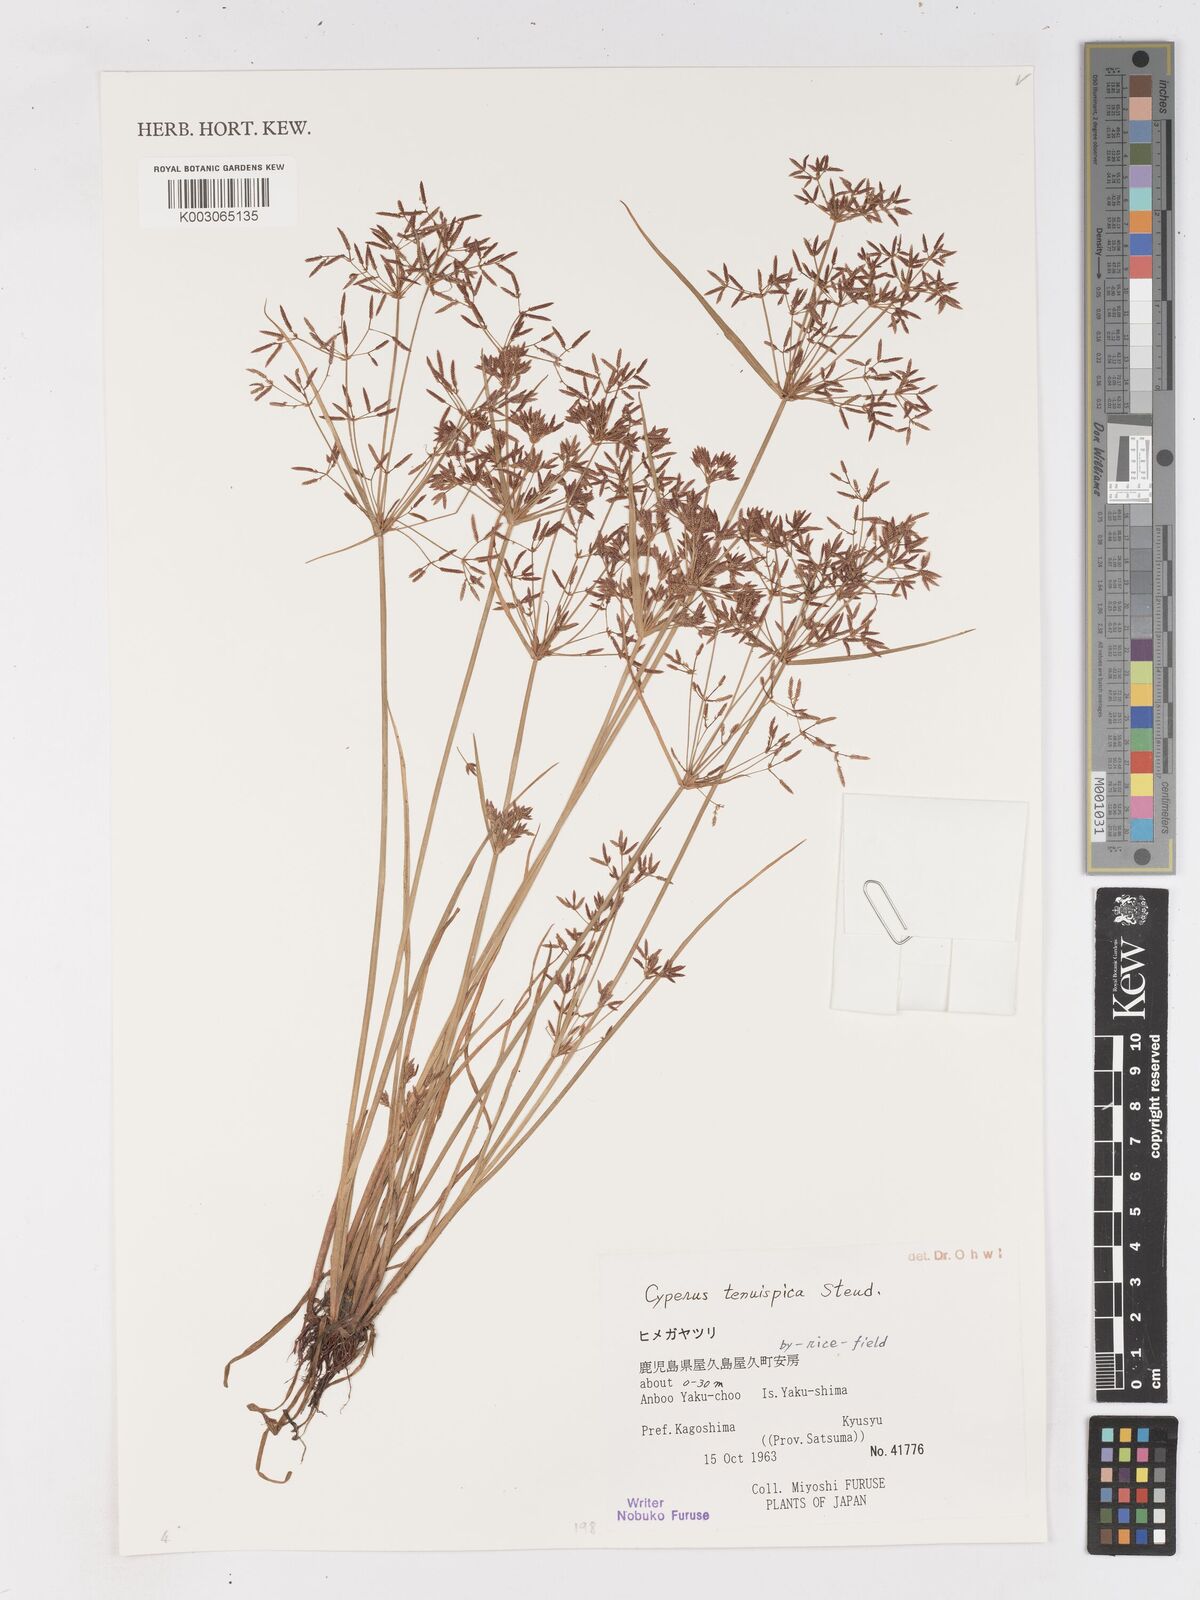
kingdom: Plantae
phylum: Tracheophyta
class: Liliopsida
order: Poales
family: Cyperaceae
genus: Cyperus
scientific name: Cyperus tenuispica
